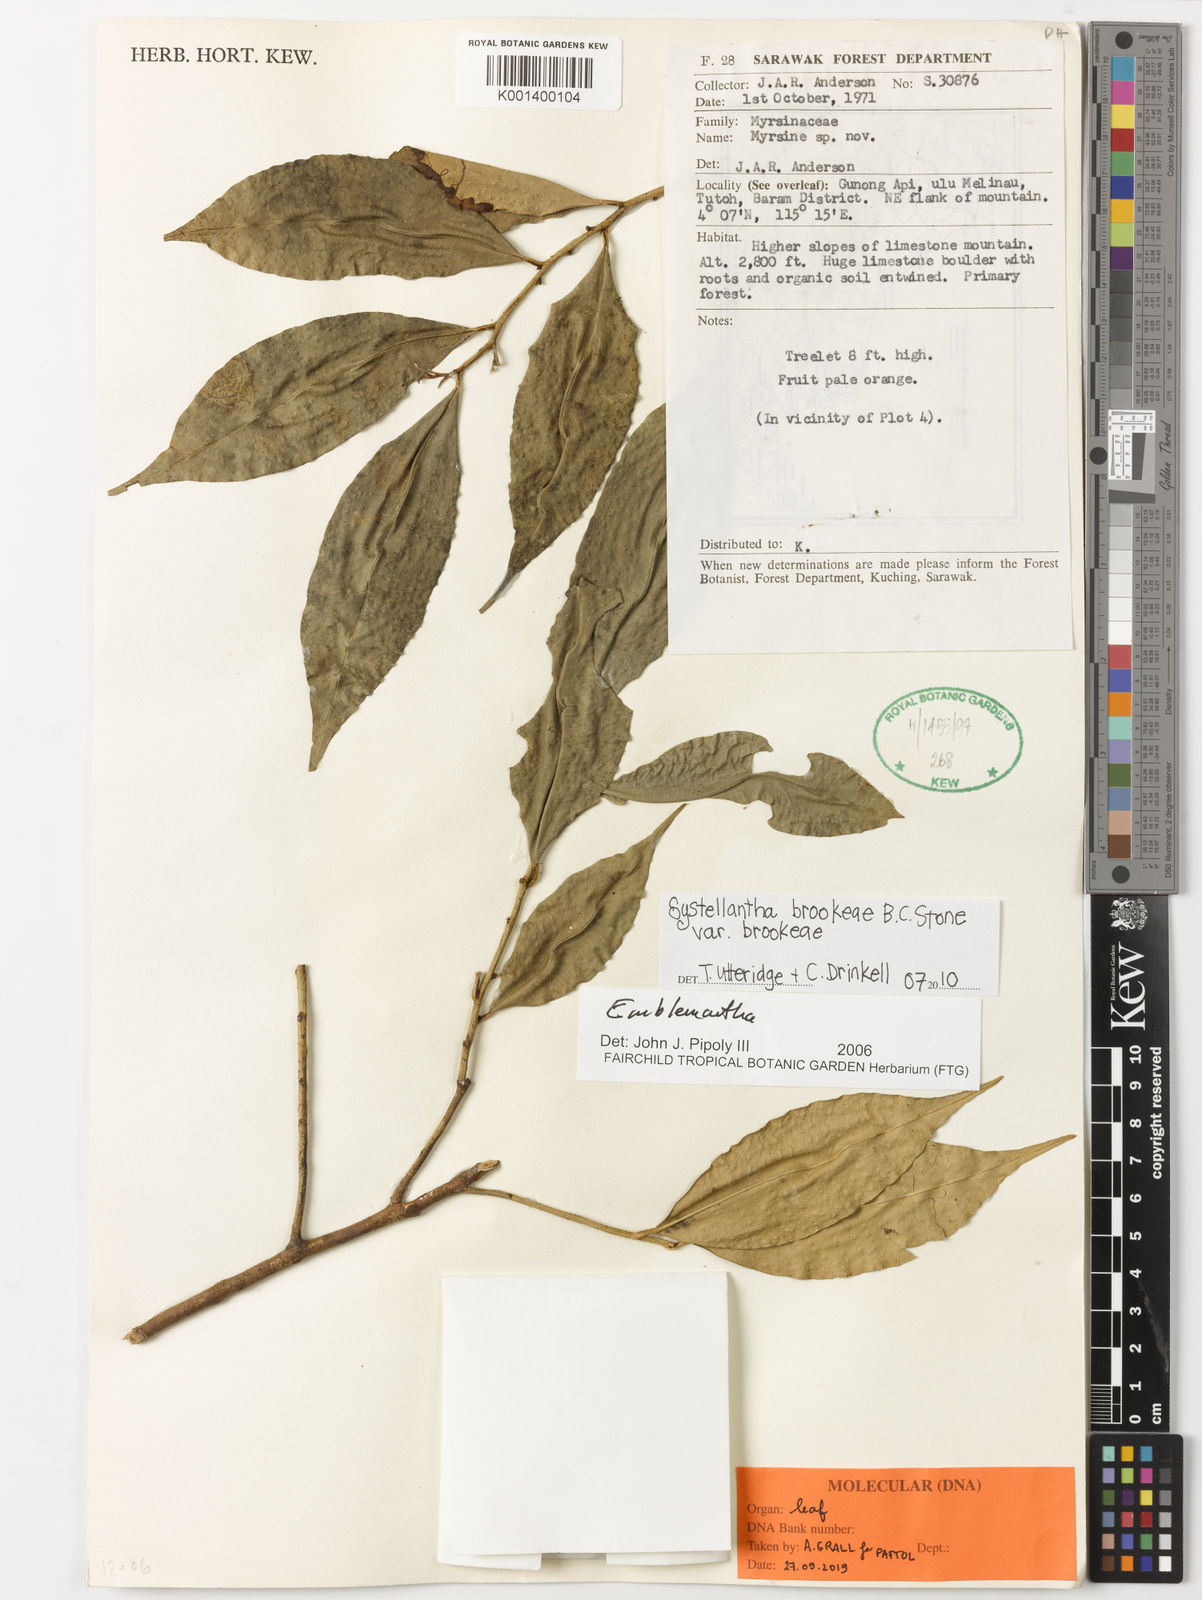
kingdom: Plantae
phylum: Tracheophyta
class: Magnoliopsida
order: Ericales
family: Primulaceae
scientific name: Primulaceae
